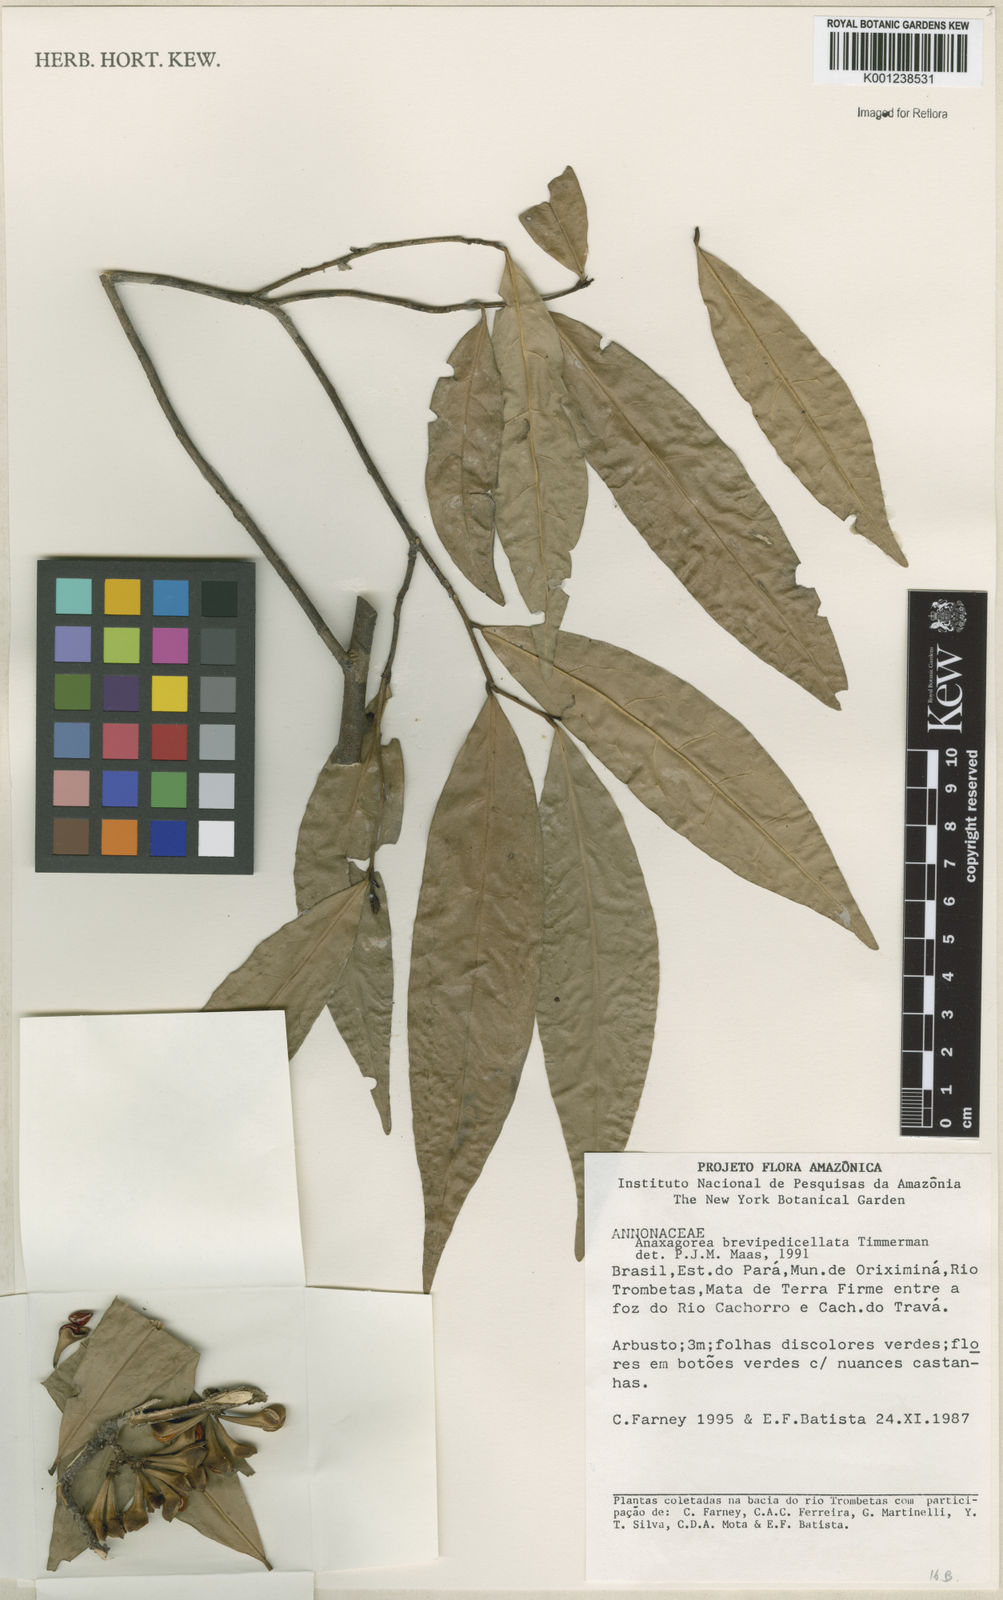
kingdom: Plantae
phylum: Tracheophyta
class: Magnoliopsida
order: Magnoliales
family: Annonaceae
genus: Anaxagorea
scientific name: Anaxagorea brevipedicellata
